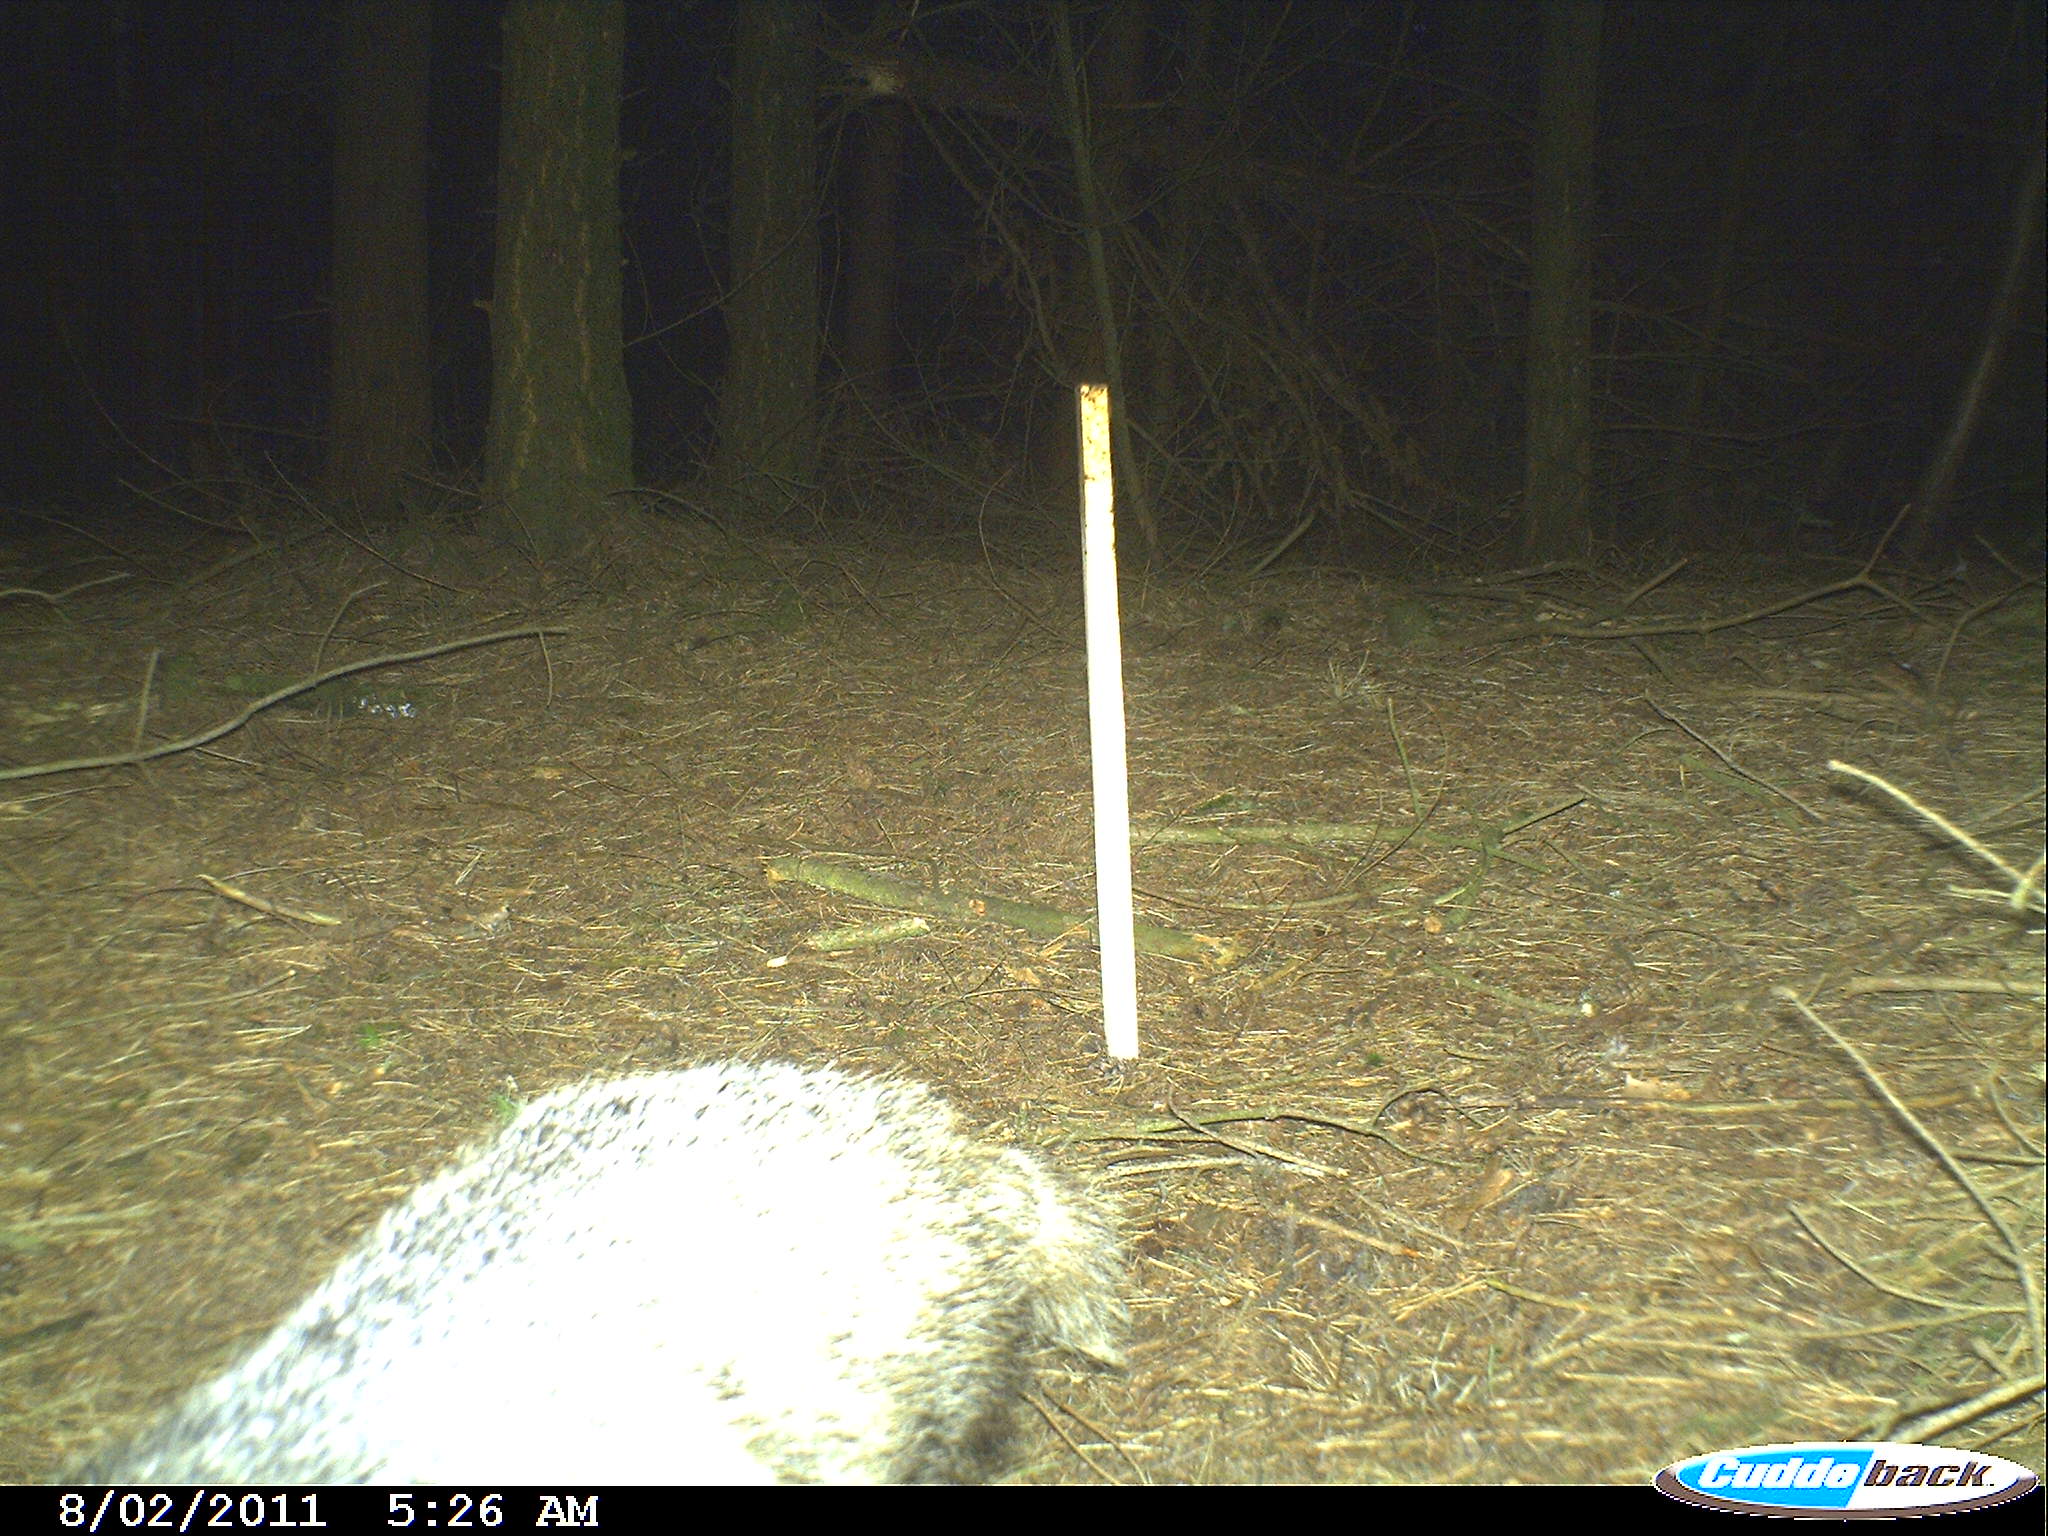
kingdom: Animalia
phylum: Chordata
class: Mammalia
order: Carnivora
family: Mustelidae
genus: Meles
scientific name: Meles meles
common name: Eurasian badger
